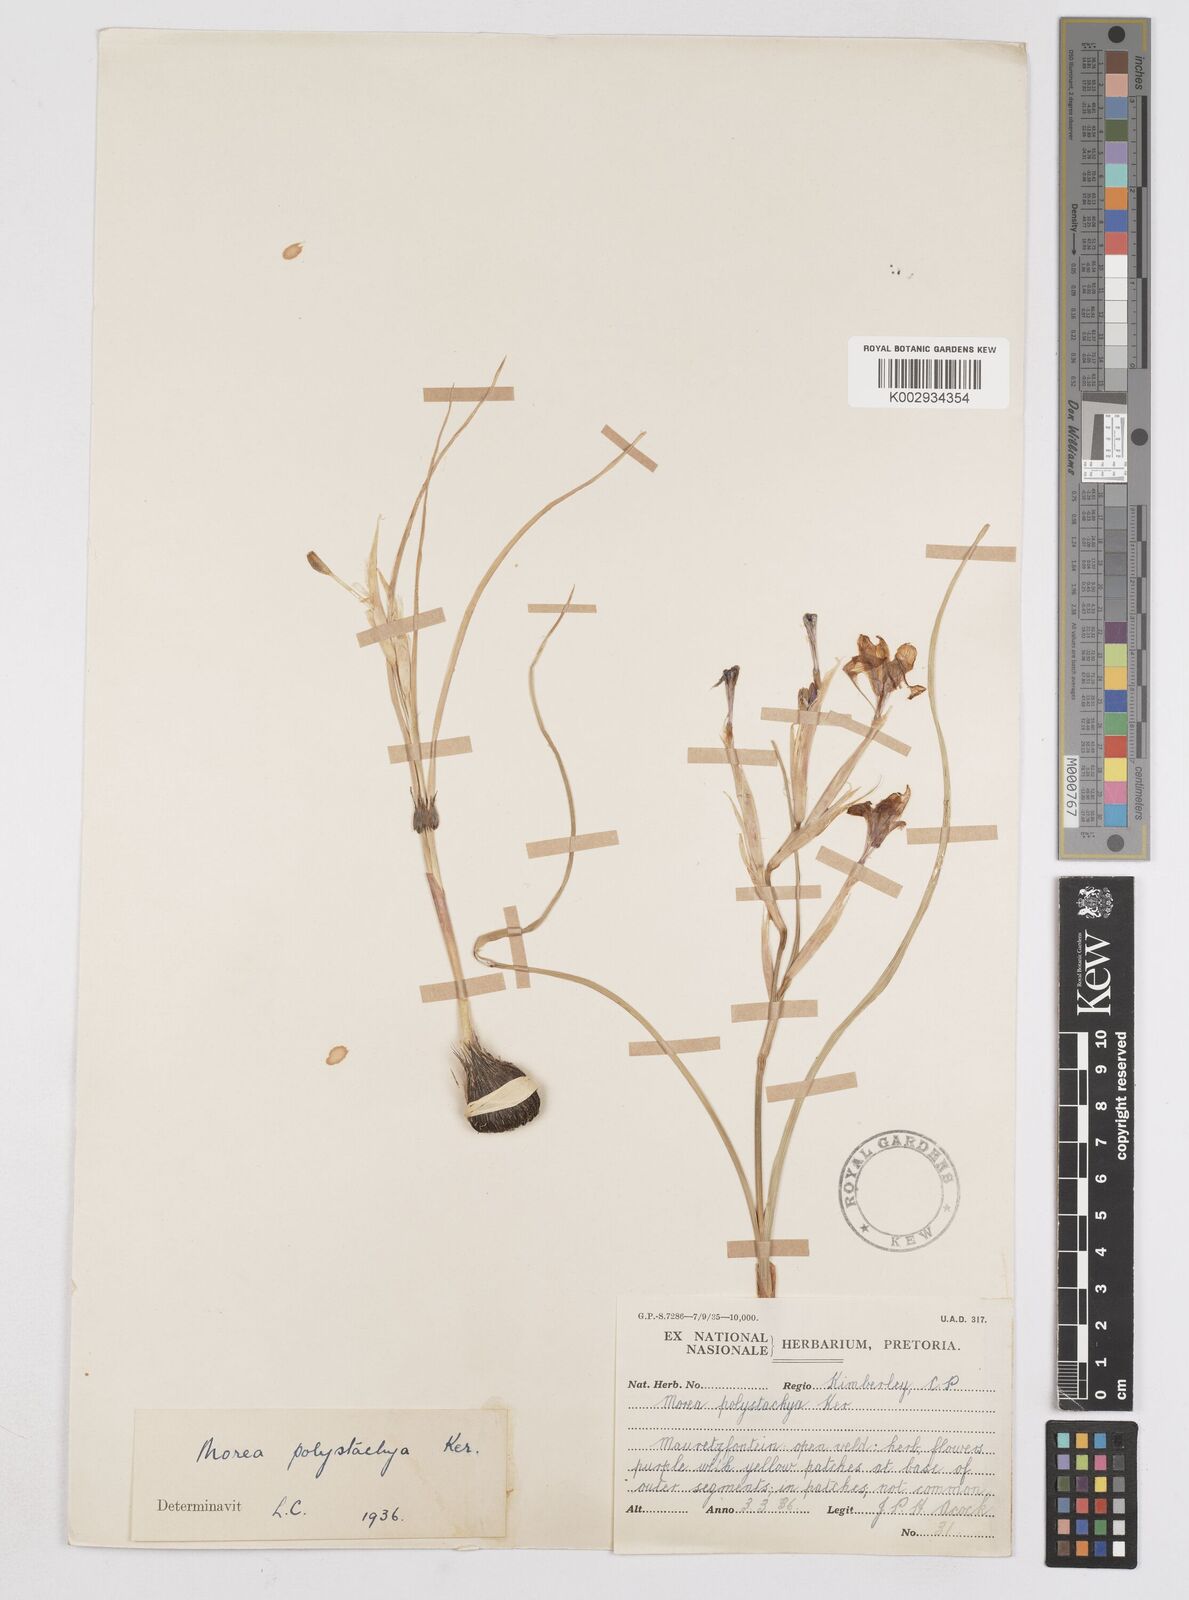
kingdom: Plantae
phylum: Tracheophyta
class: Liliopsida
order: Asparagales
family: Iridaceae
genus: Moraea
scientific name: Moraea polystachya
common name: Blue-tulip
